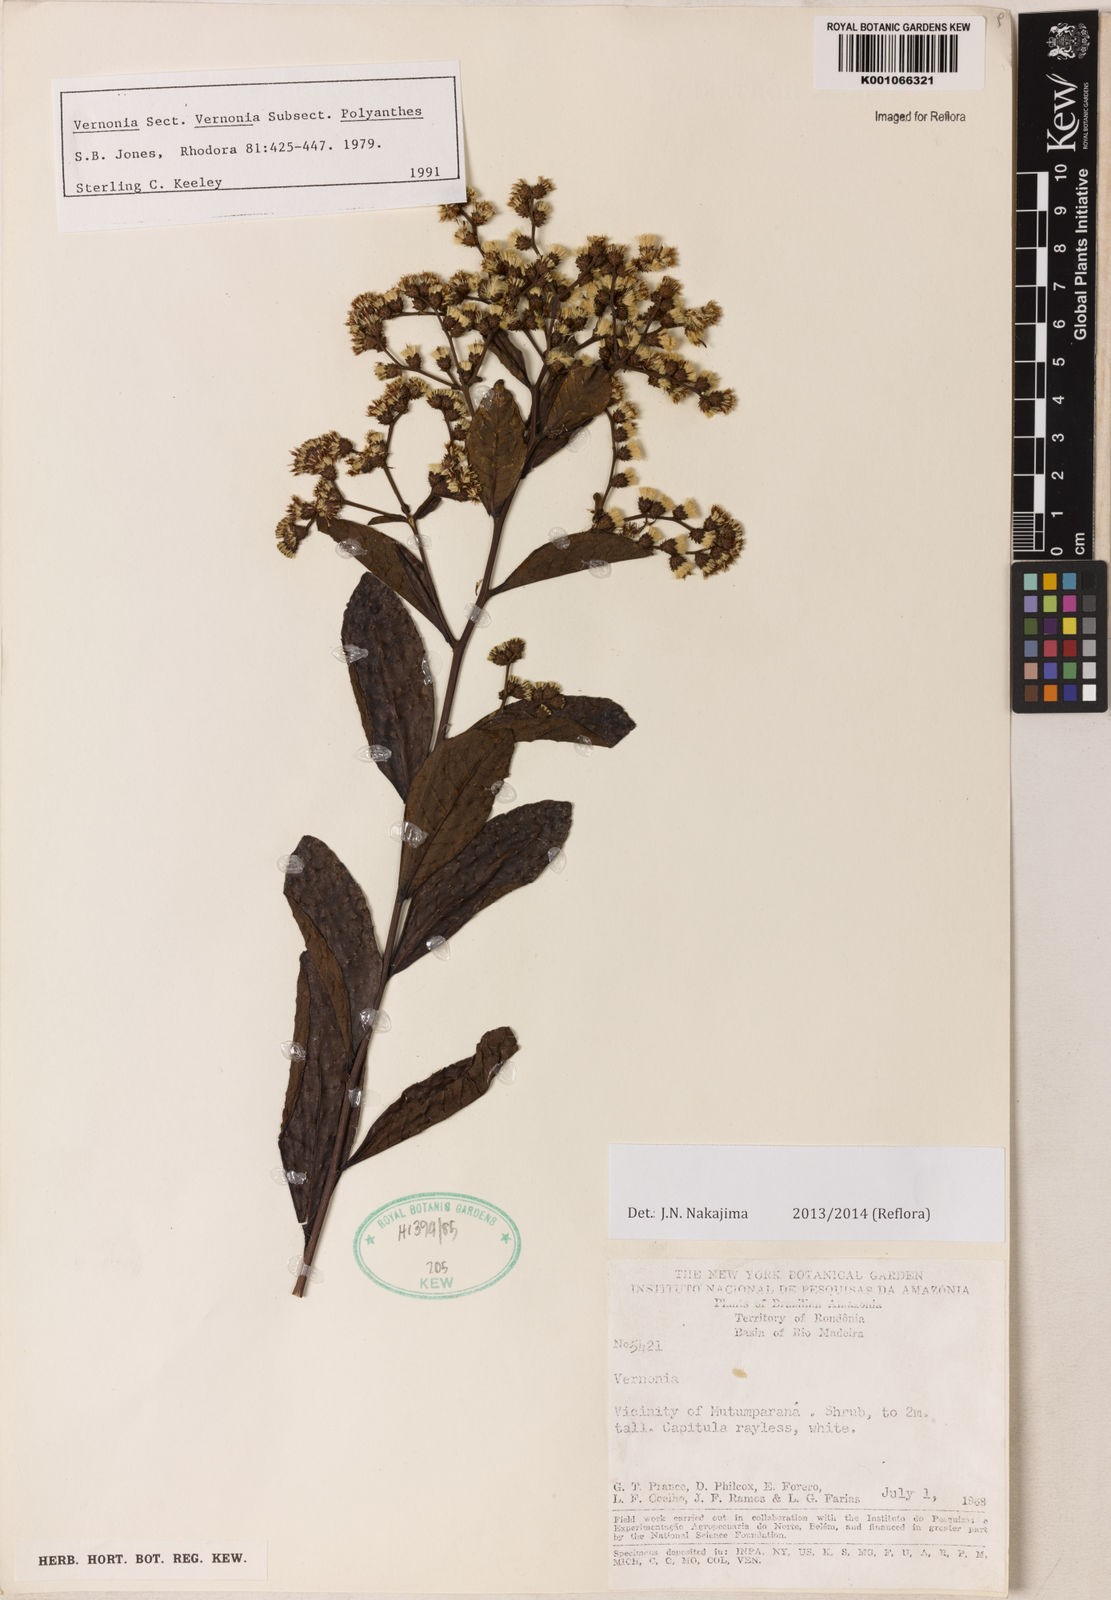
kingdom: Plantae
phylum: Tracheophyta
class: Magnoliopsida
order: Asterales
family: Asteraceae
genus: Vernonanthura
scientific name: Vernonanthura membranacea
